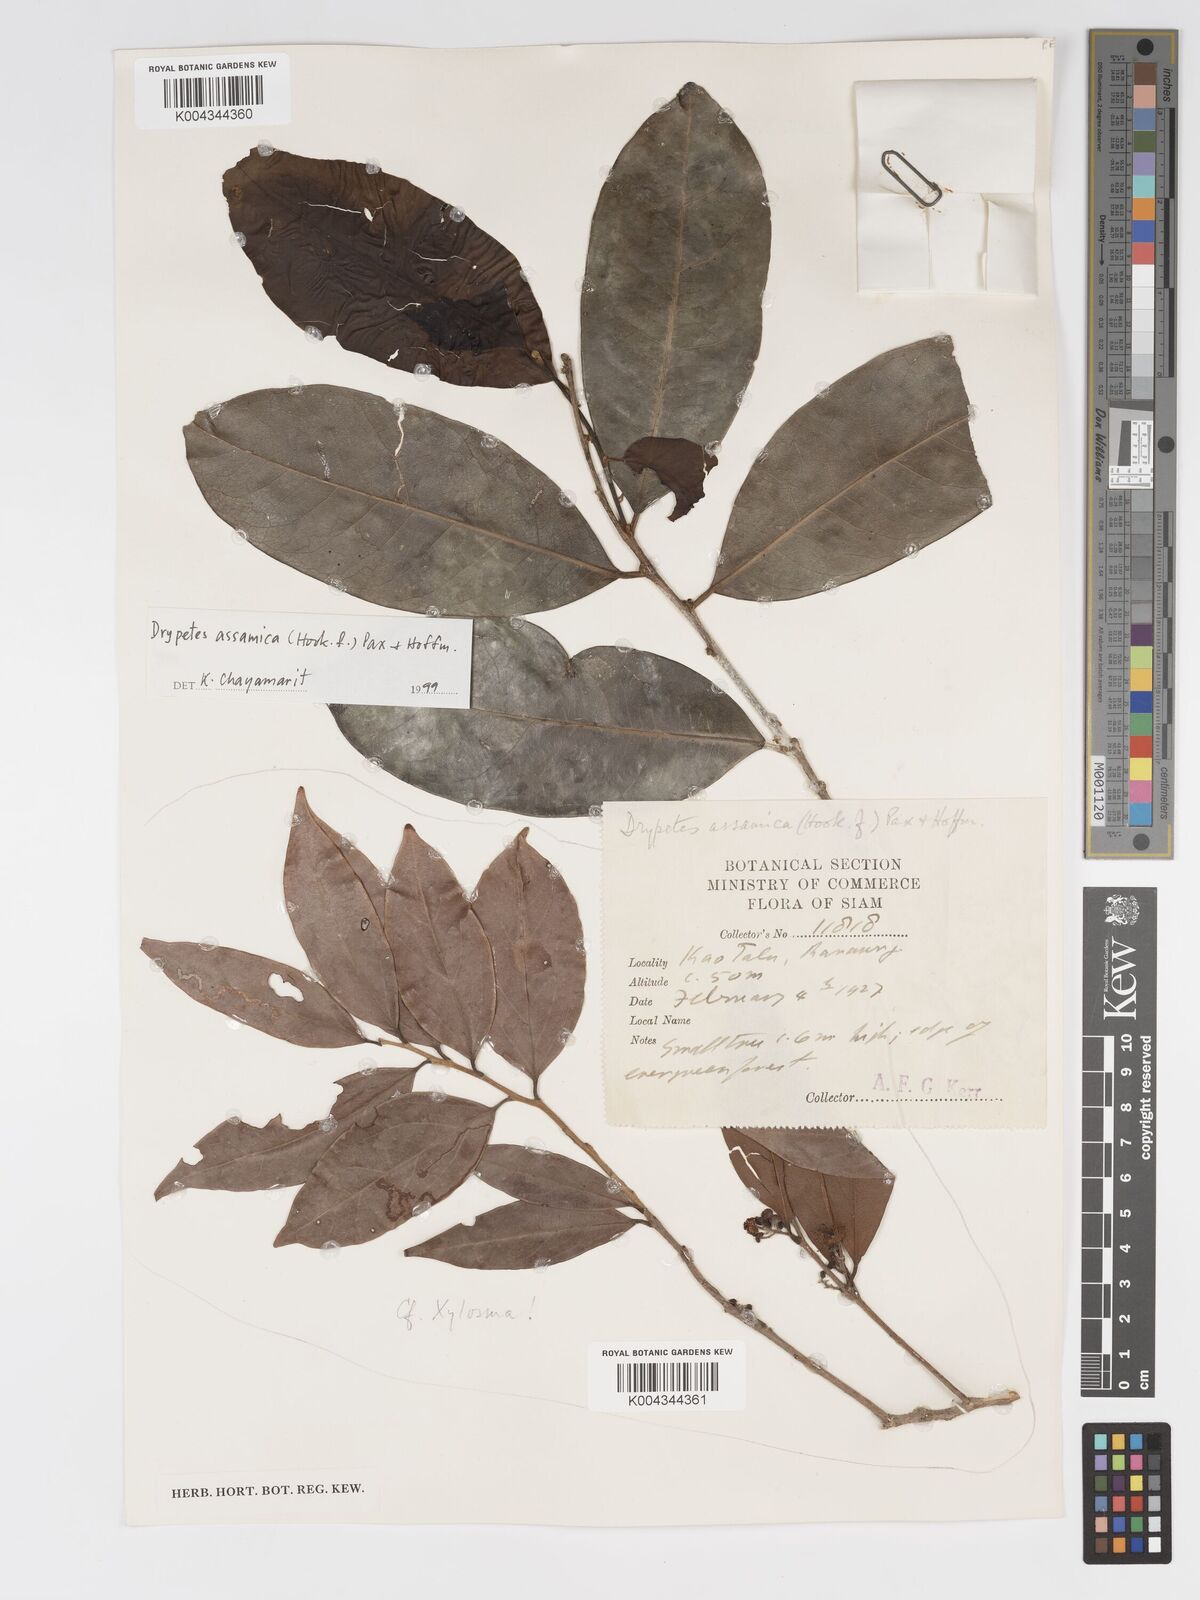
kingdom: Plantae
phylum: Tracheophyta
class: Magnoliopsida
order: Malpighiales
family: Putranjivaceae
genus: Drypetes
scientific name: Drypetes assamica
